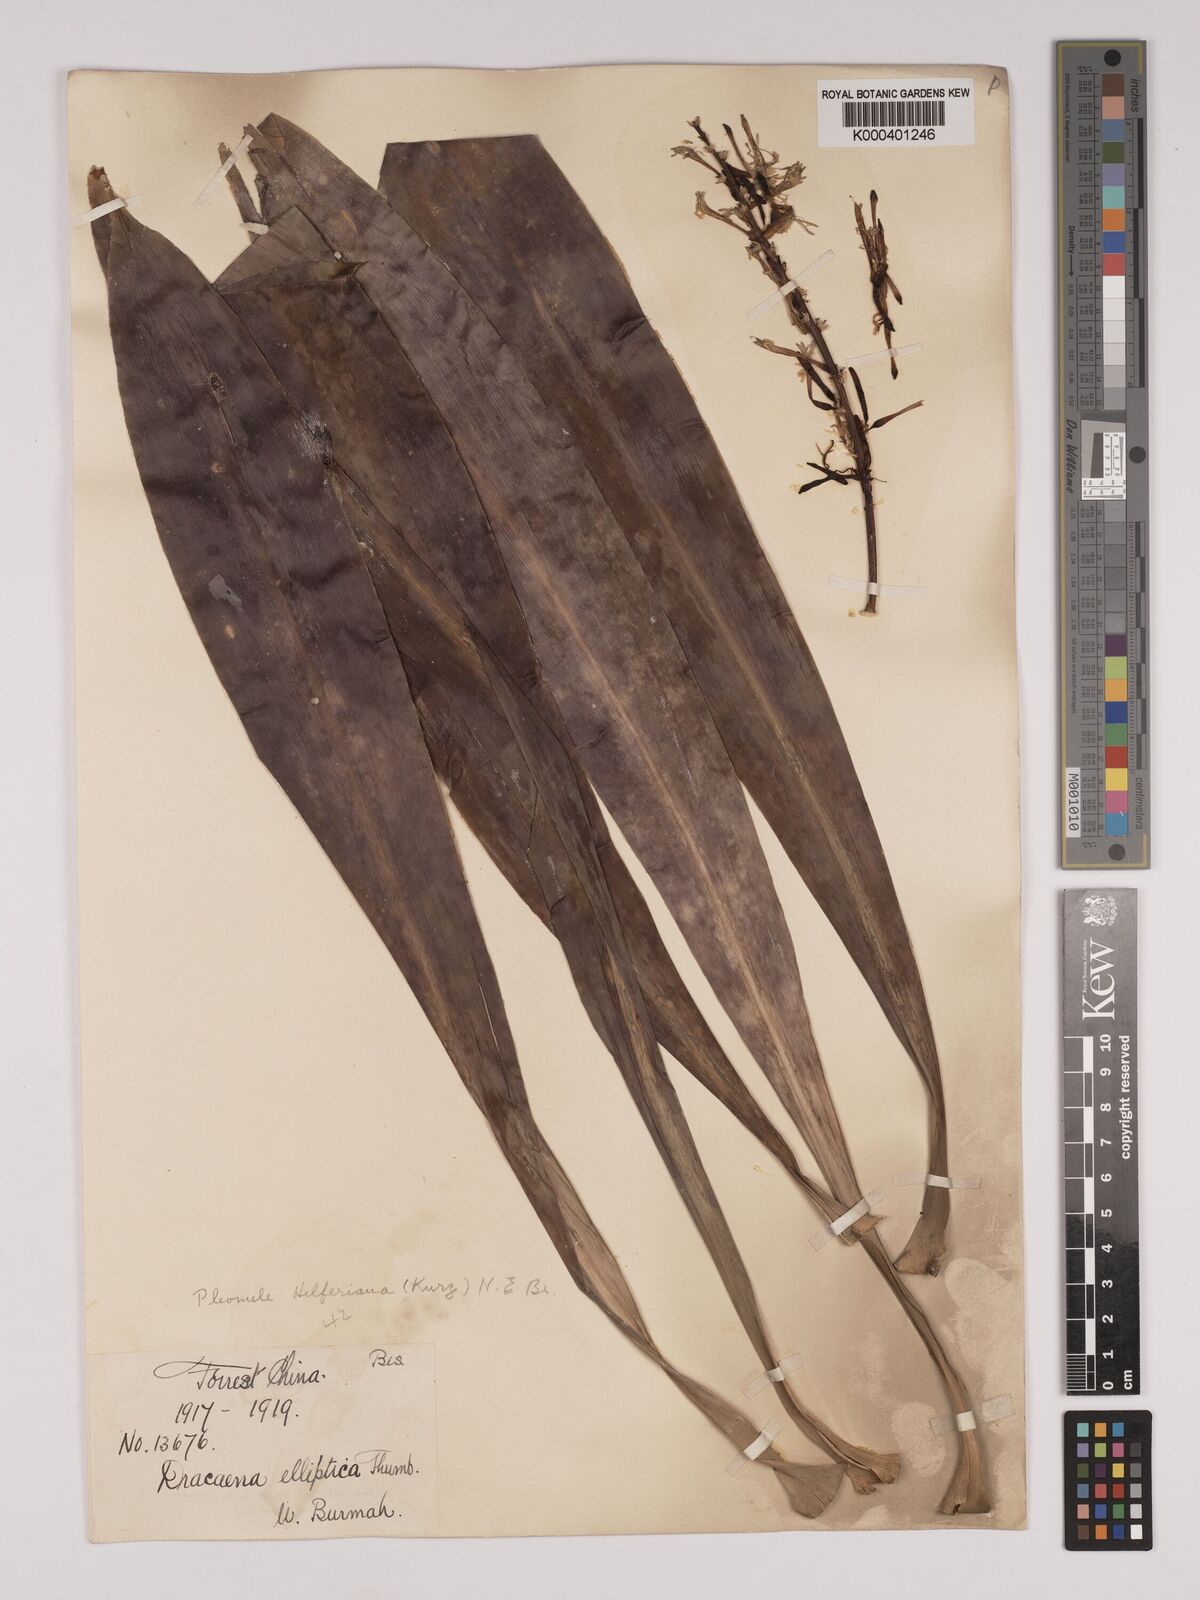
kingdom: Plantae
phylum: Tracheophyta
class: Liliopsida
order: Asparagales
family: Asparagaceae
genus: Dracaena
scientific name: Dracaena griffithii
